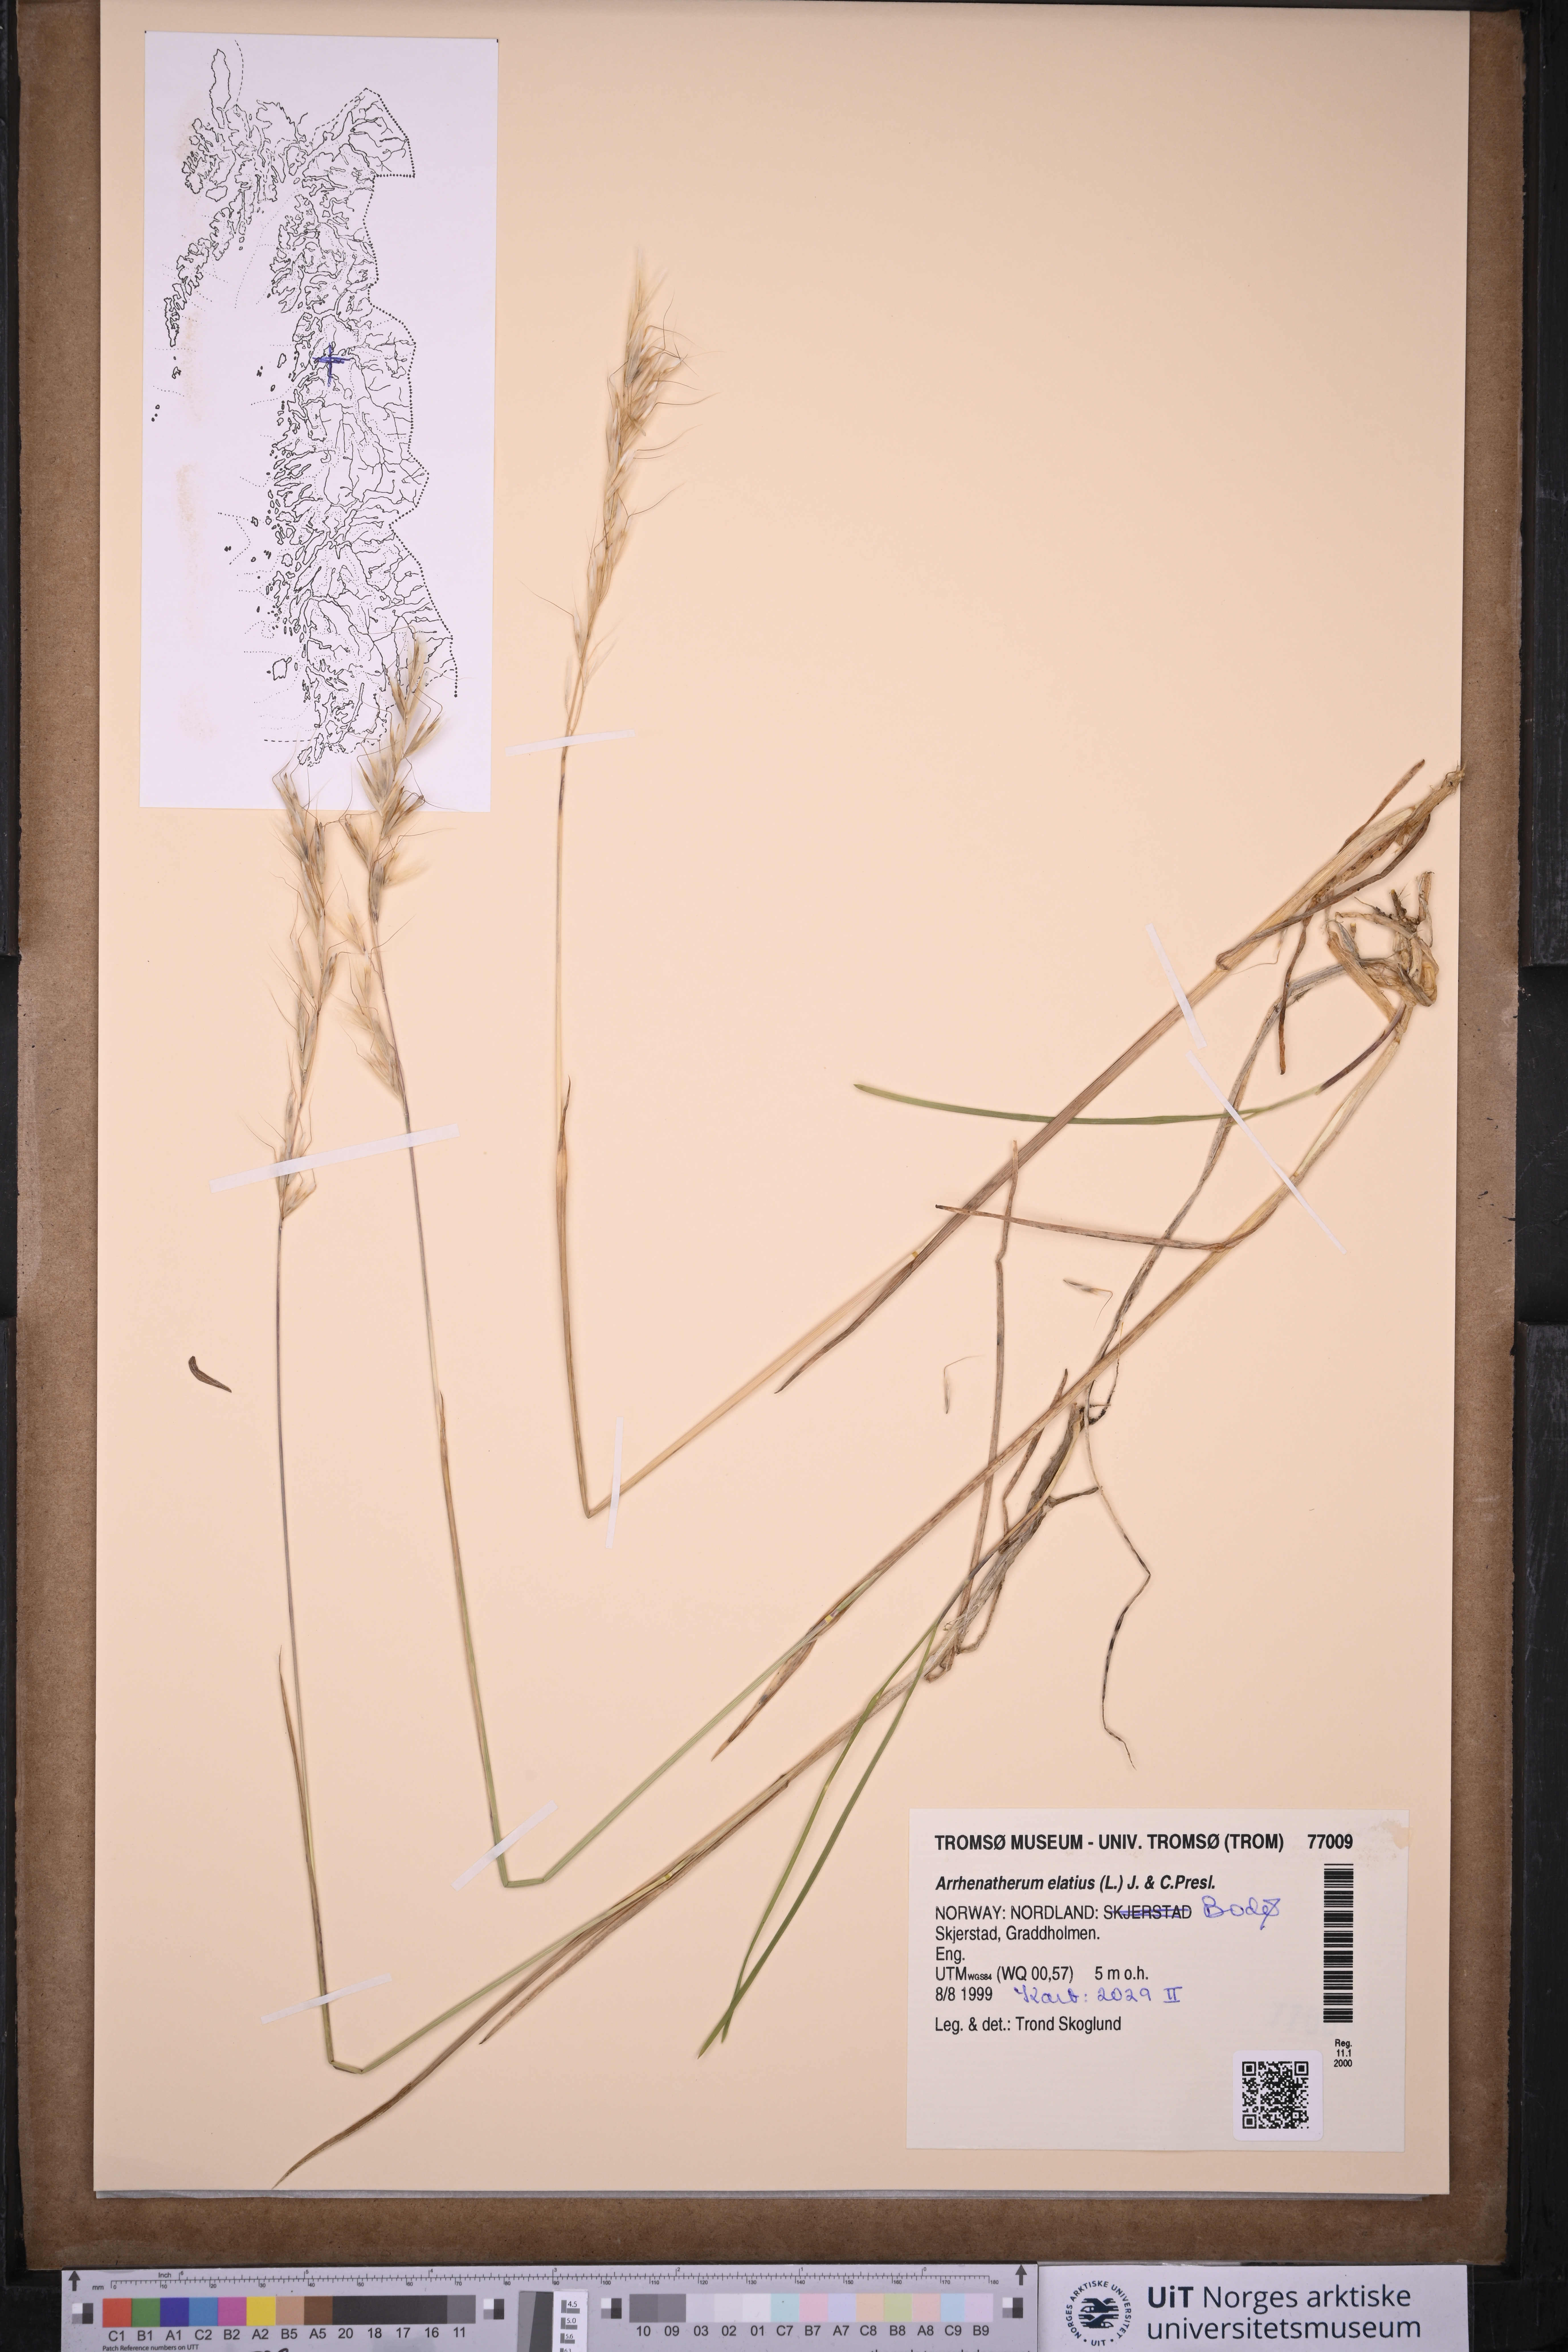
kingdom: Plantae
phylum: Tracheophyta
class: Liliopsida
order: Poales
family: Poaceae
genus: Arrhenatherum
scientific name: Arrhenatherum elatius
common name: Tall oatgrass
